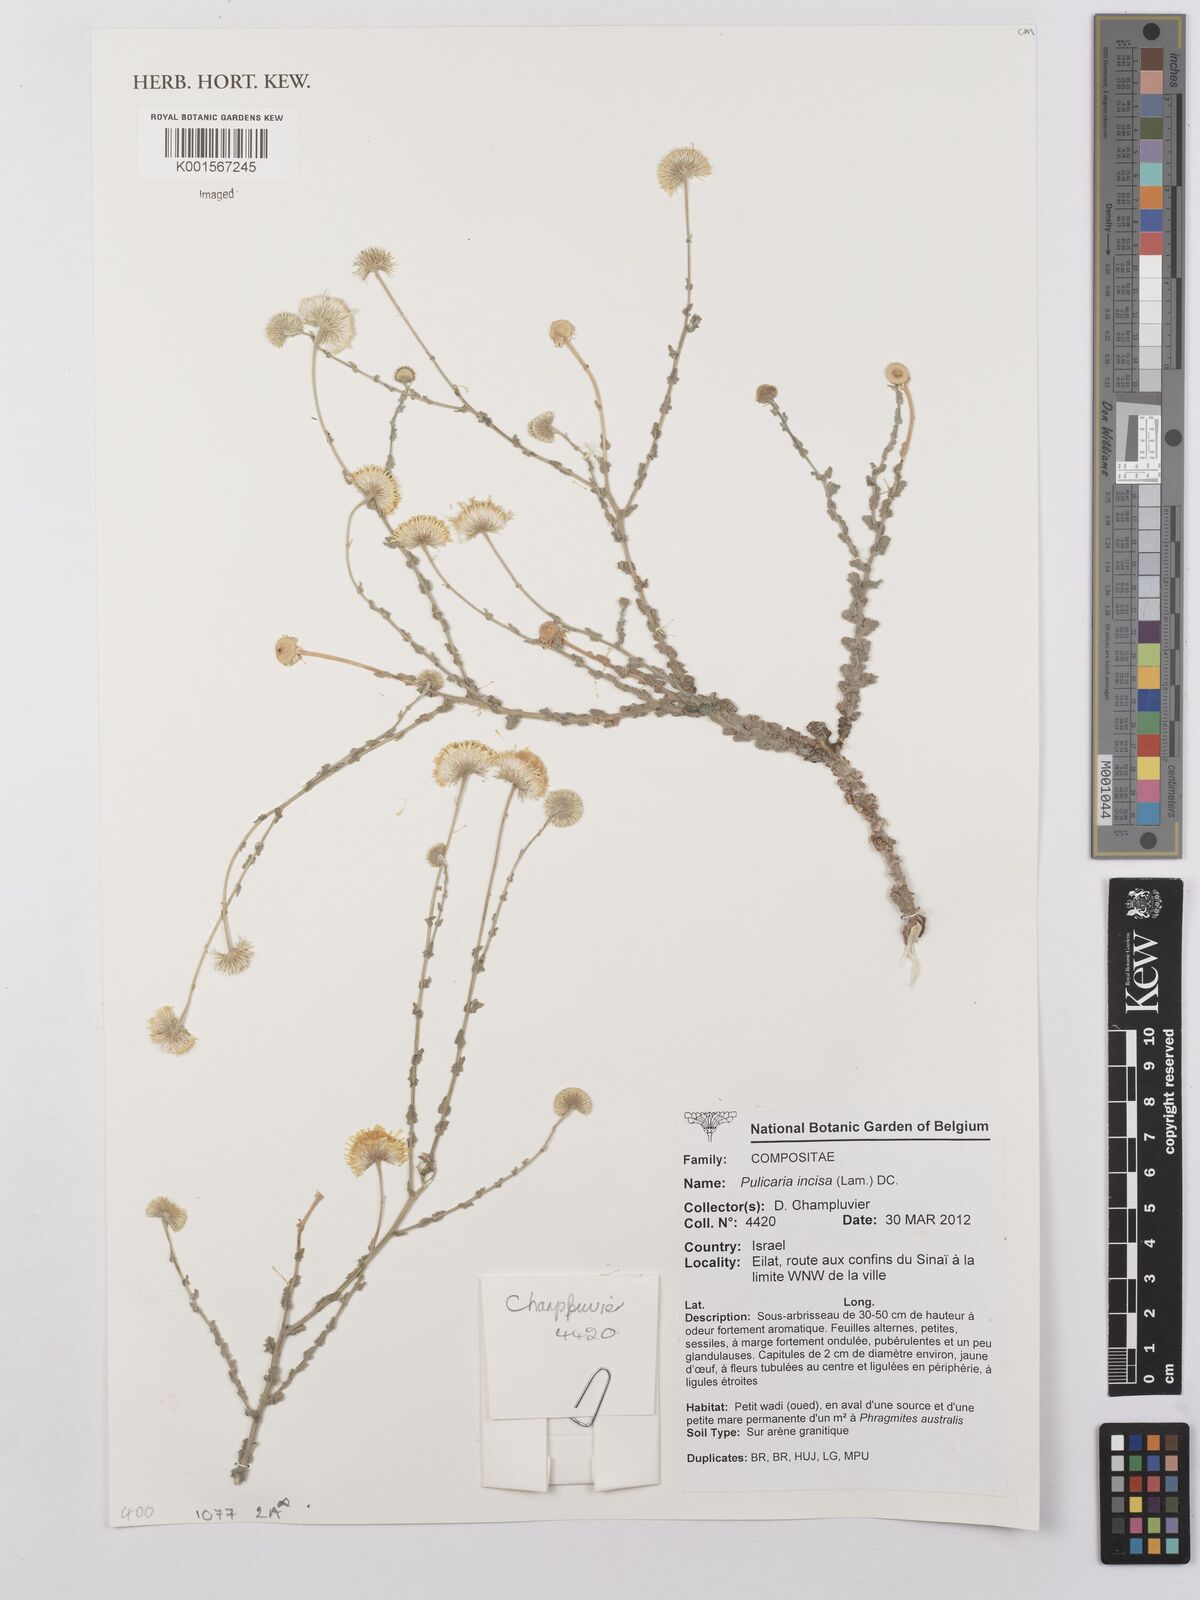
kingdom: Plantae
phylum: Tracheophyta
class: Magnoliopsida
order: Asterales
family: Asteraceae
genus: Pulicaria
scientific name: Pulicaria incisa
